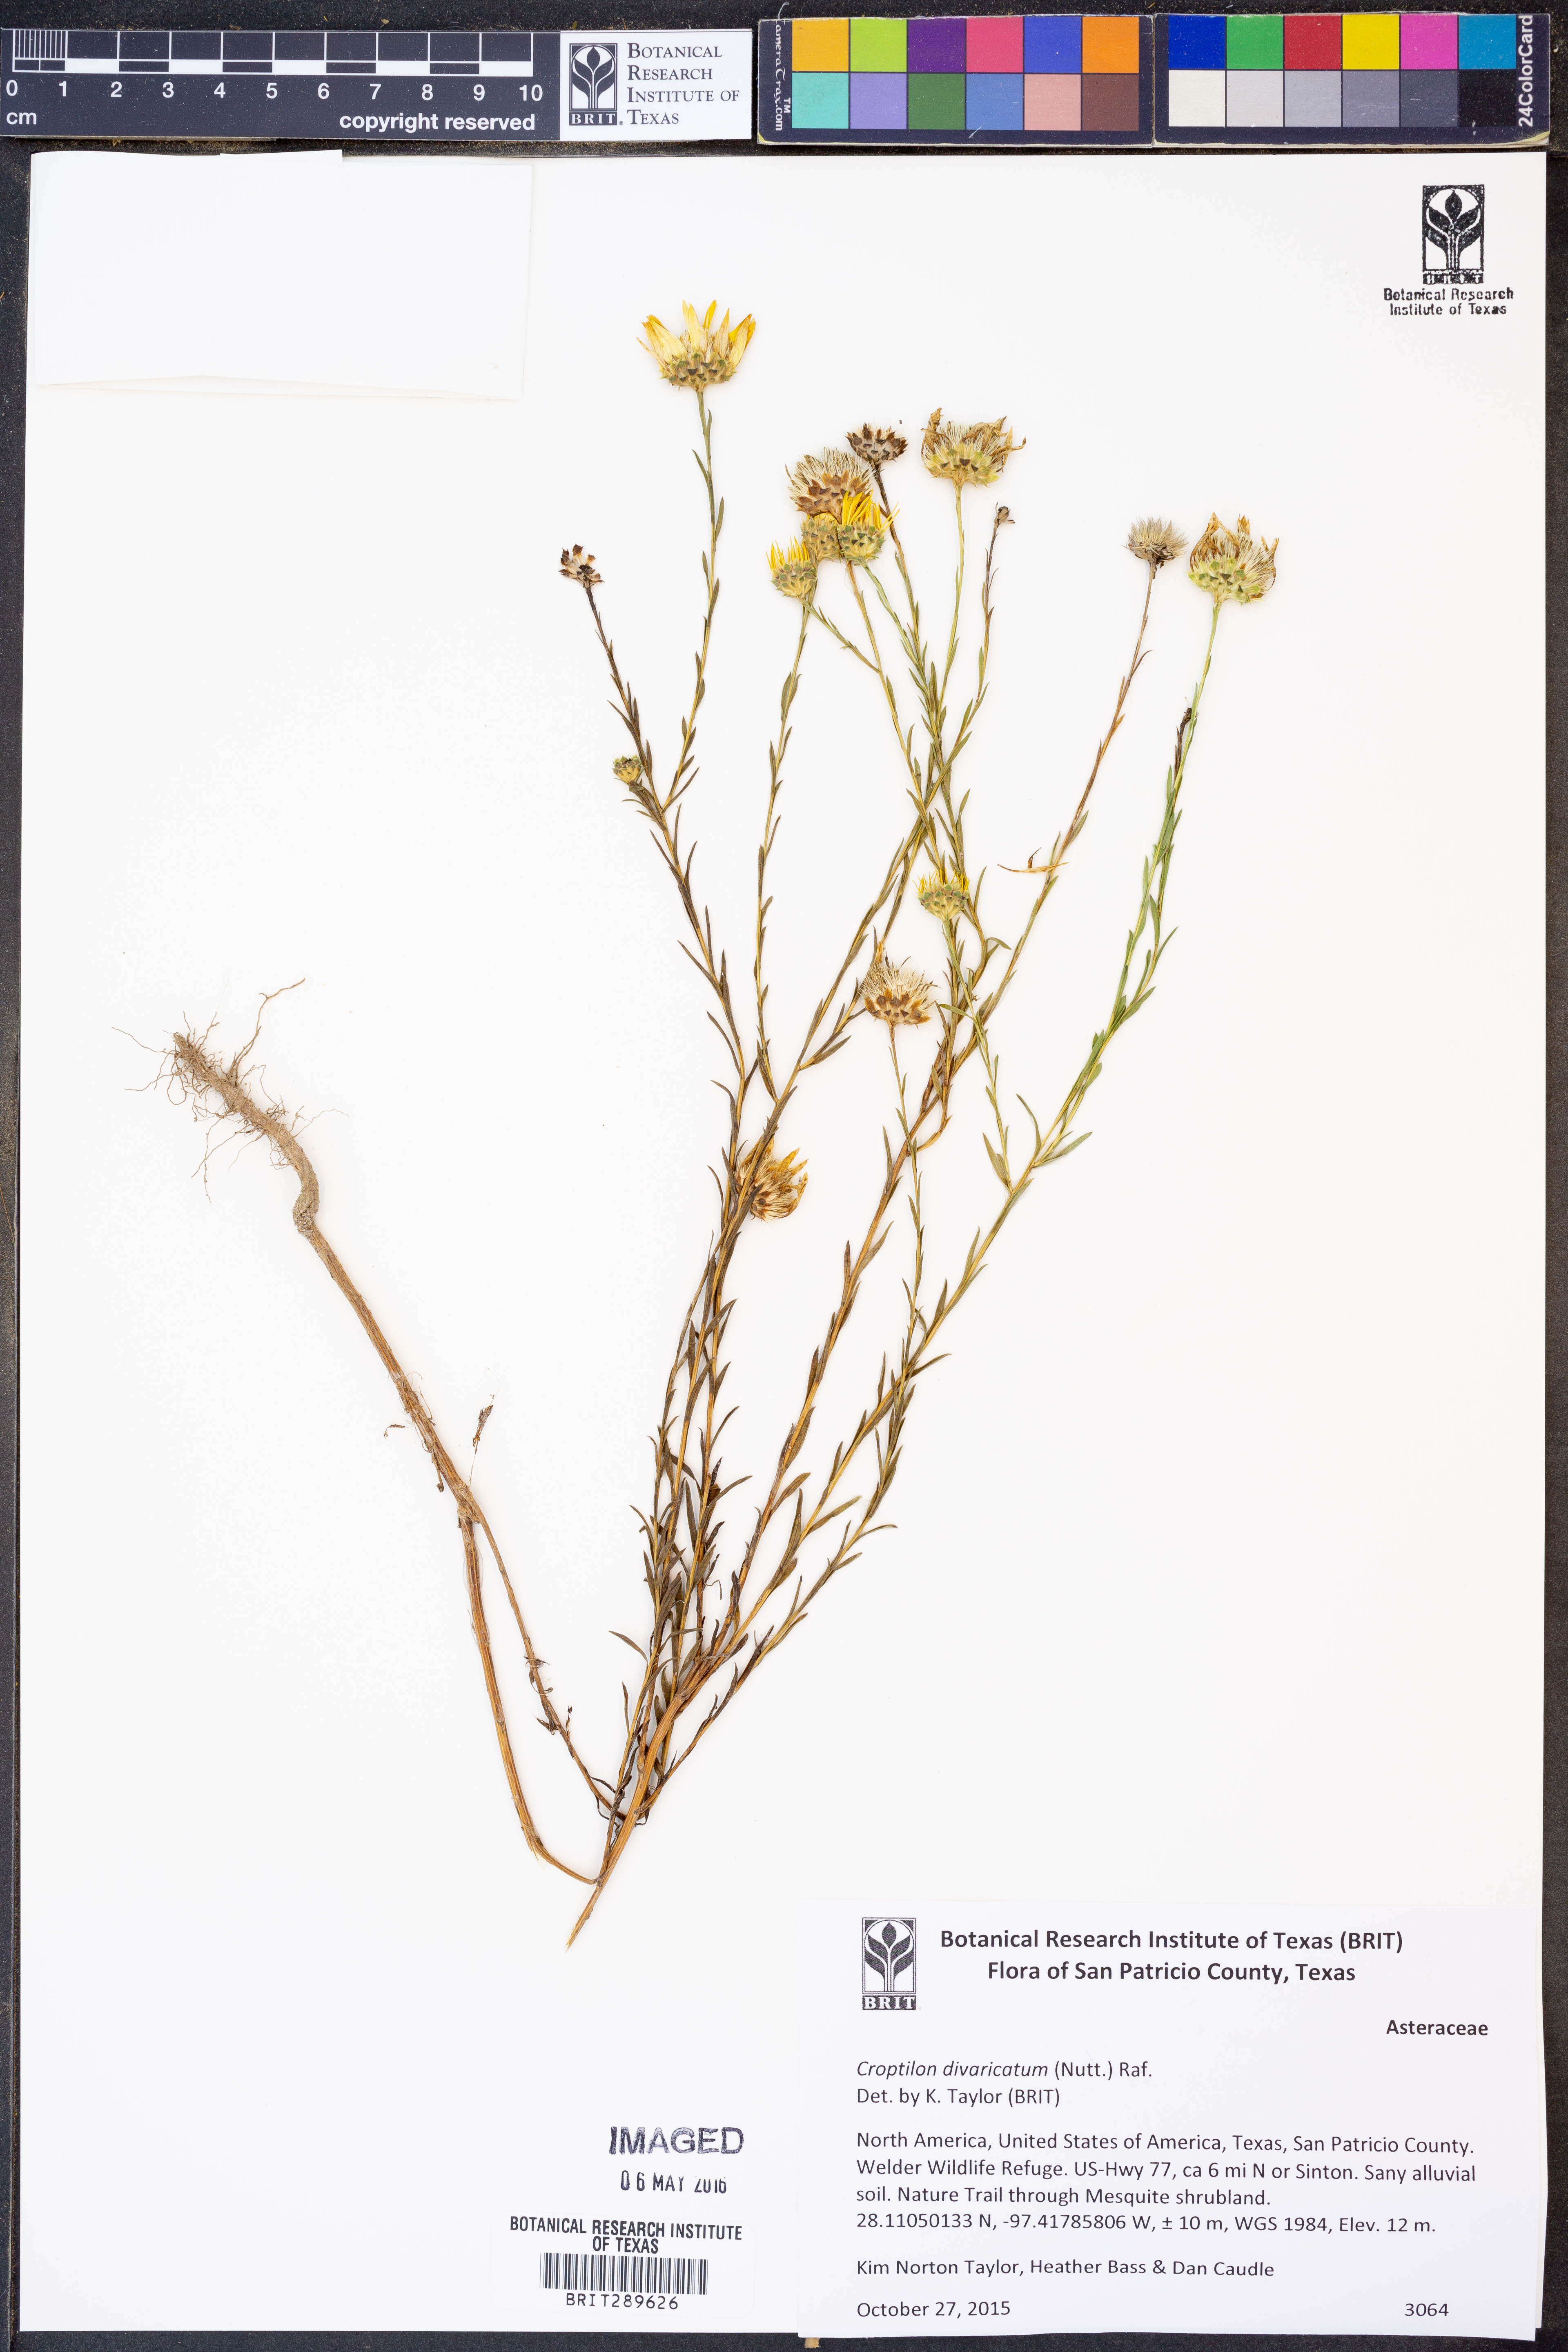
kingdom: Plantae
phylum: Tracheophyta
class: Magnoliopsida
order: Asterales
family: Asteraceae
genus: Croptilon
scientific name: Croptilon divaricatum
